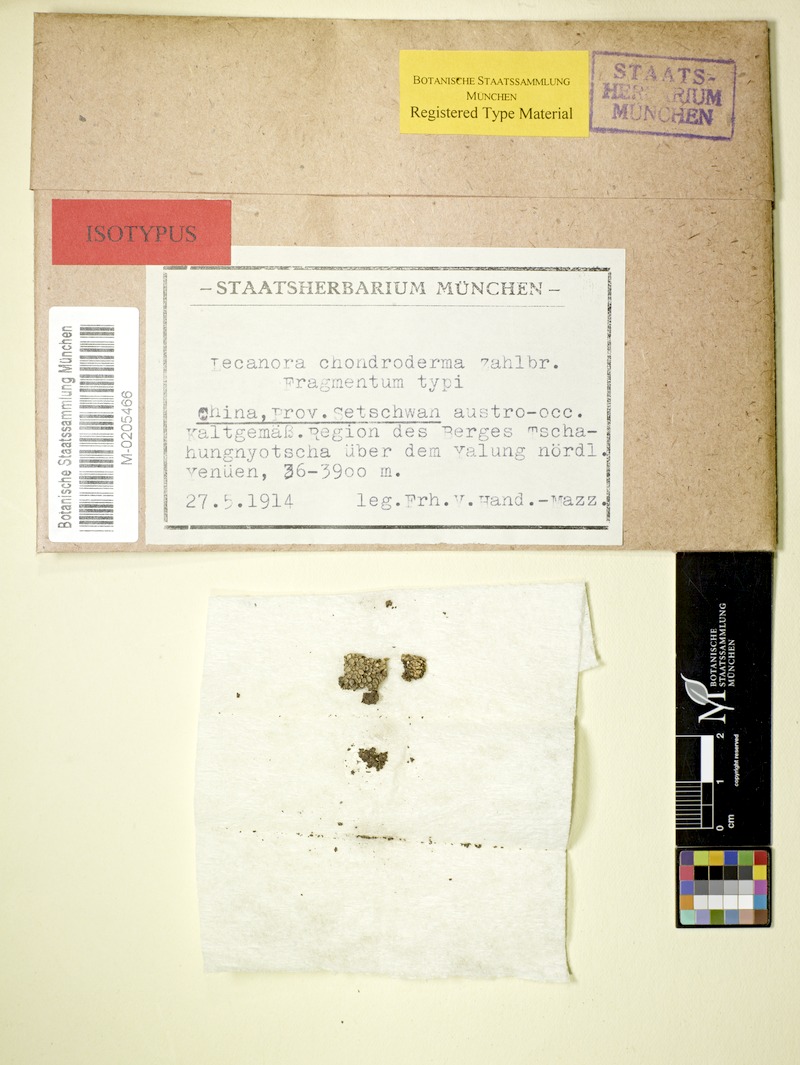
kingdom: Fungi
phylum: Ascomycota
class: Lecanoromycetes
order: Lecanorales
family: Lecanoraceae
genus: Lecanora
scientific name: Lecanora chondroderma
